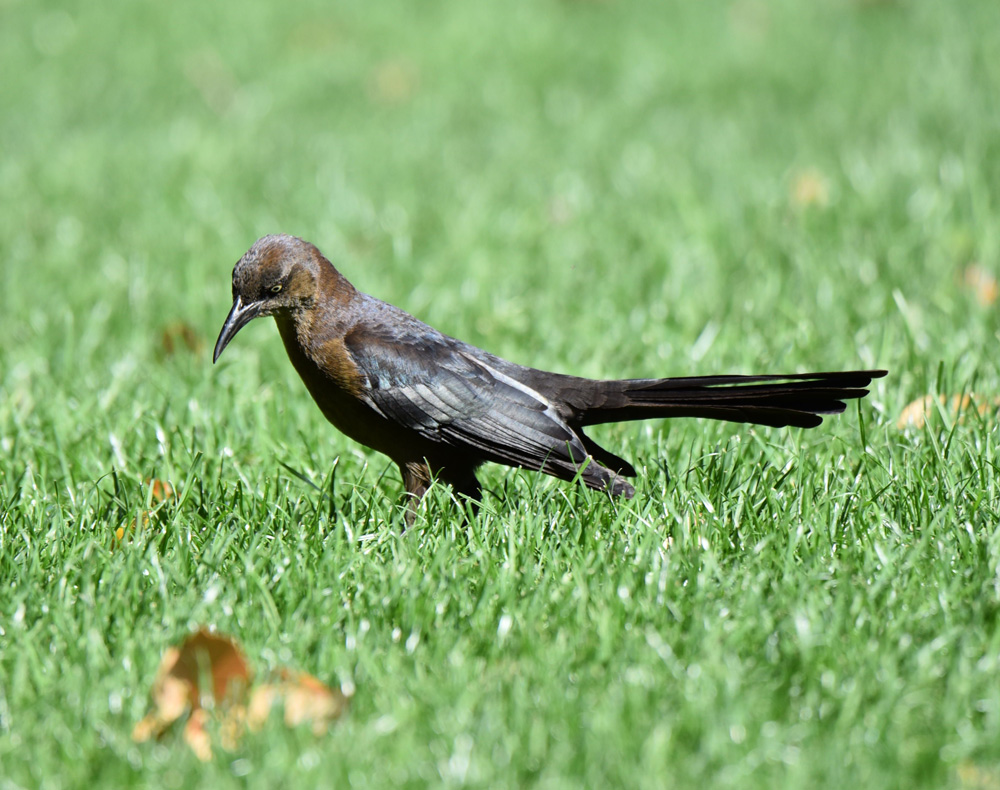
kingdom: Animalia
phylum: Chordata
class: Aves
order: Passeriformes
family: Icteridae
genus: Quiscalus
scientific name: Quiscalus mexicanus
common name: Great-tailed grackle
